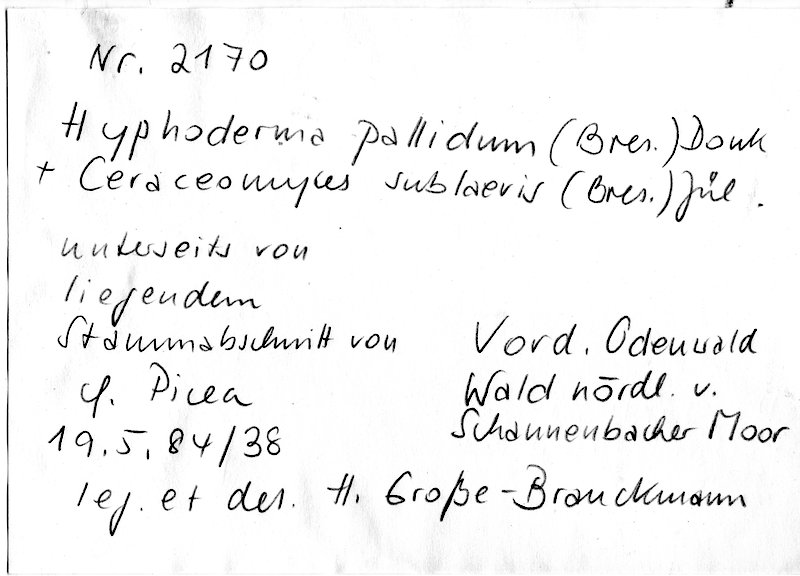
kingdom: Fungi
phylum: Basidiomycota
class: Agaricomycetes
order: Amylocorticiales
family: Amylocorticiaceae
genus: Ceraceomyces
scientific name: Ceraceomyces sublaevis
